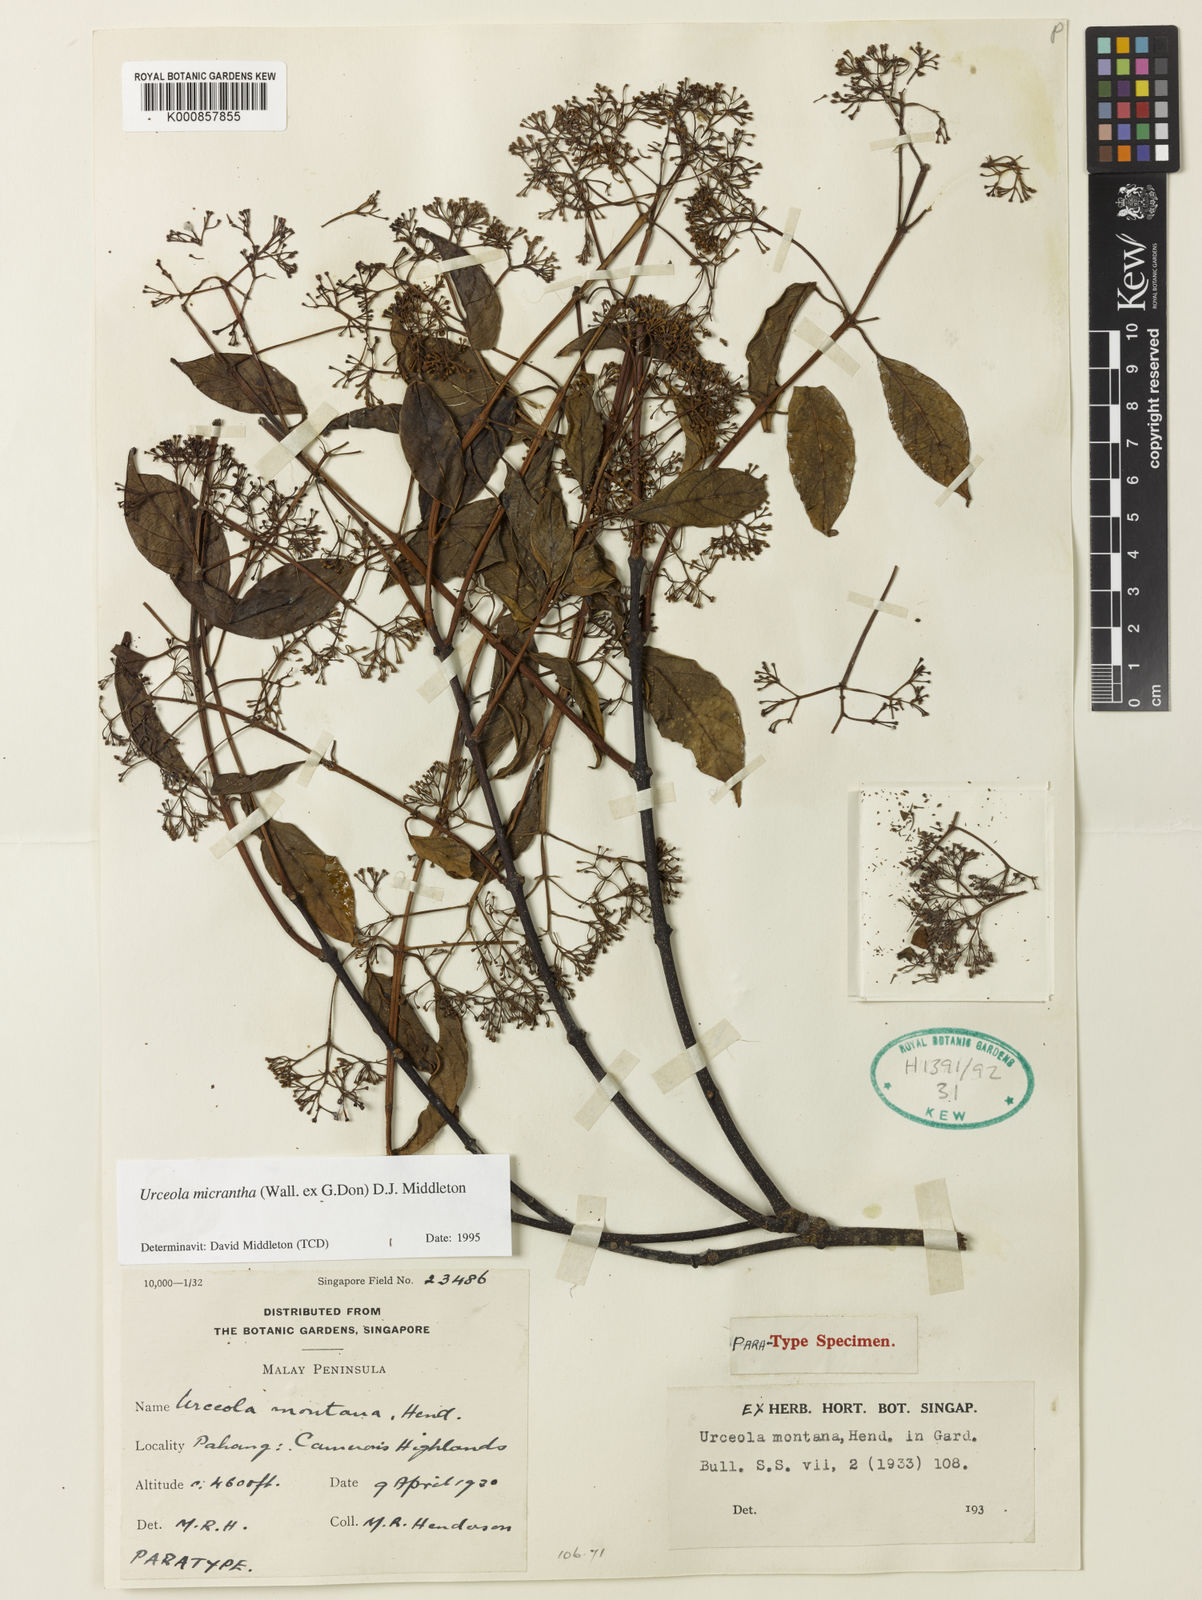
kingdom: Plantae
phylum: Tracheophyta
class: Magnoliopsida
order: Gentianales
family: Apocynaceae
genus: Urceola
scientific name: Urceola micrantha
